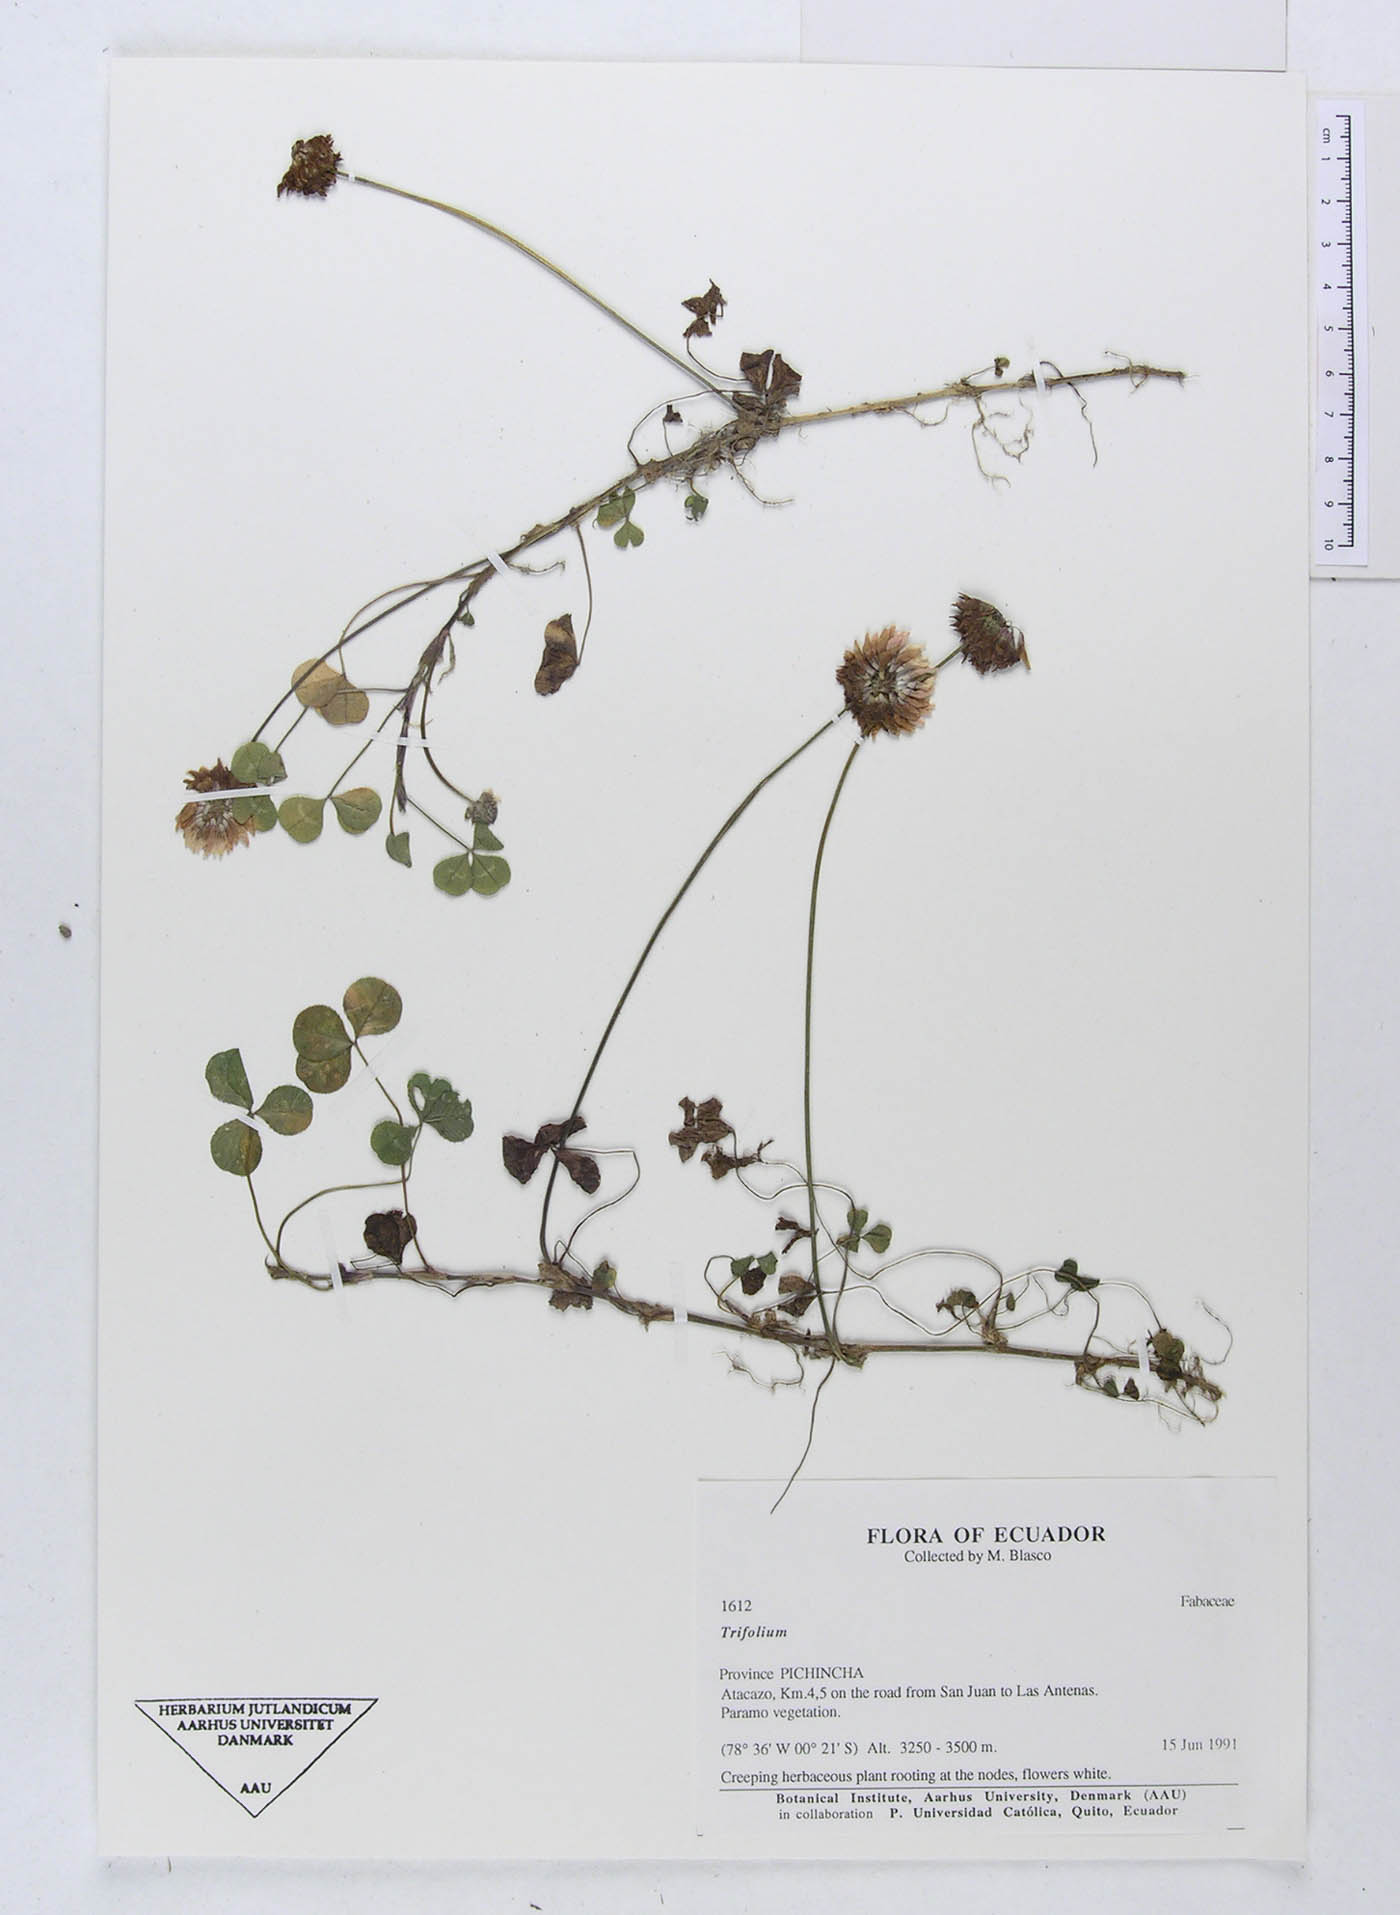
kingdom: Plantae
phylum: Tracheophyta
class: Magnoliopsida
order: Fabales
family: Fabaceae
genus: Trifolium
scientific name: Trifolium
